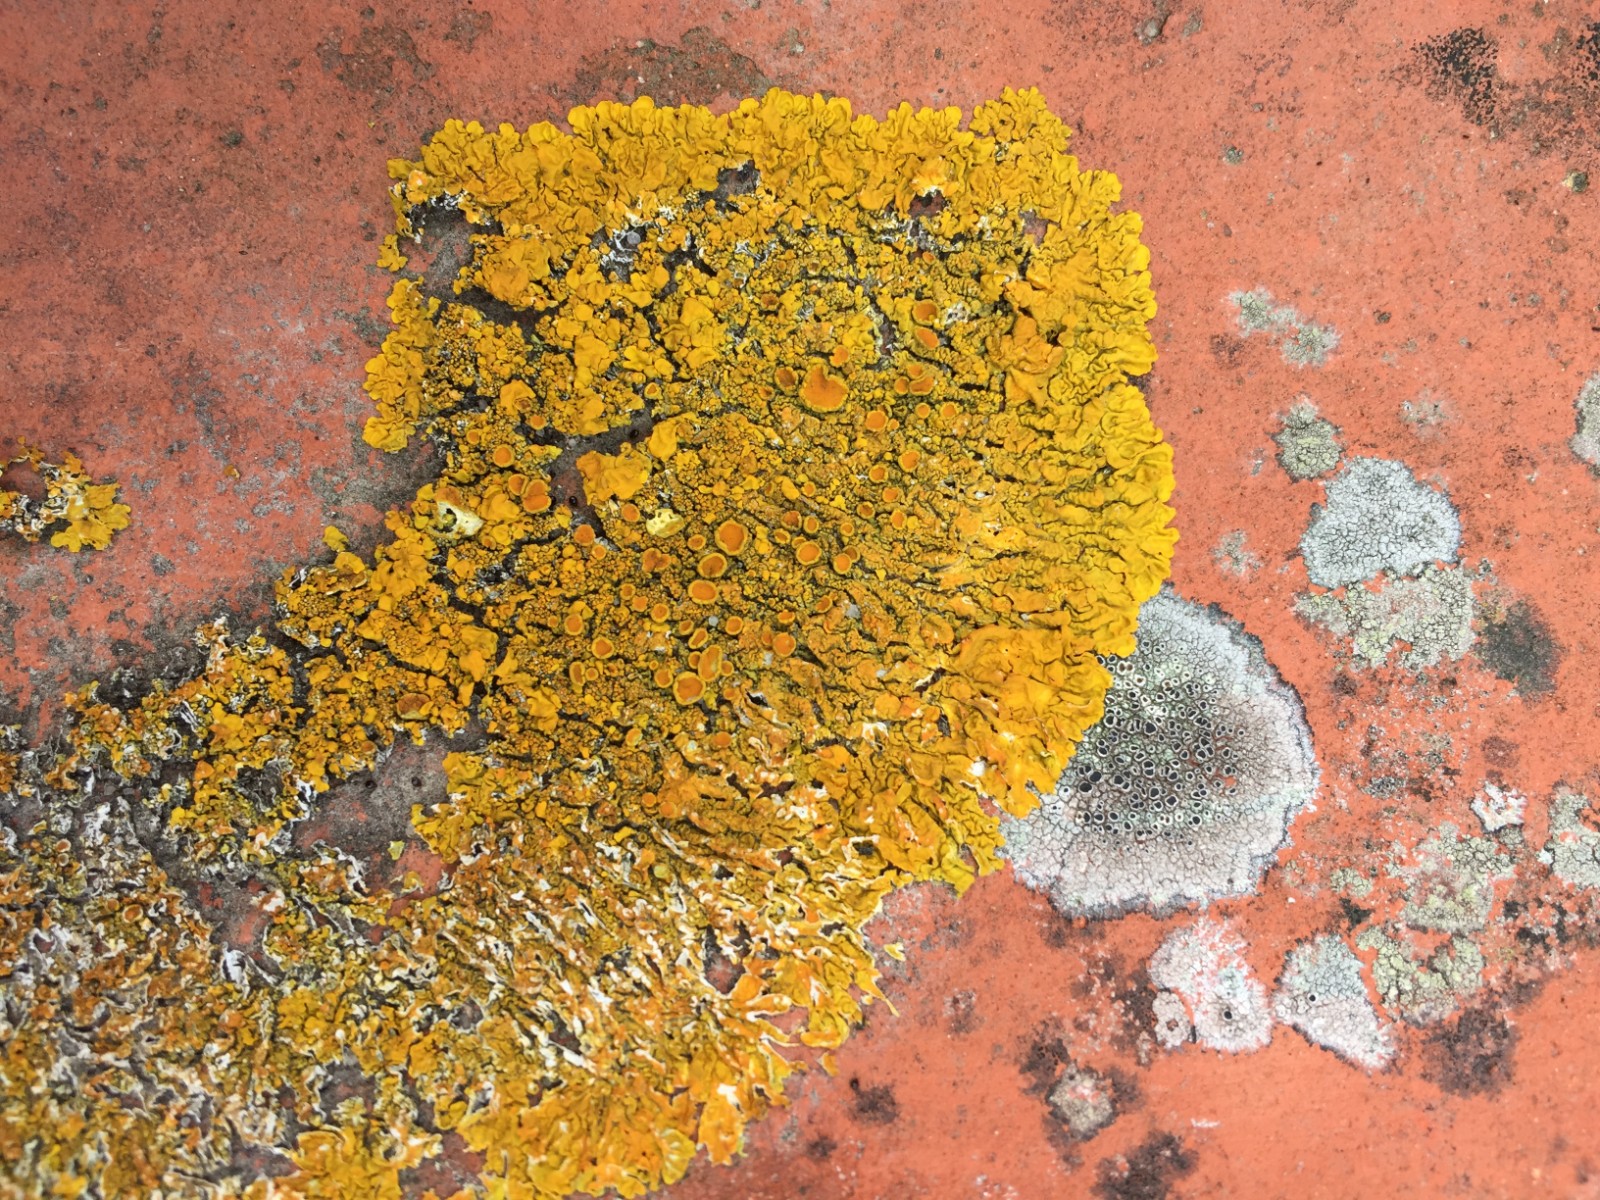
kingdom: Fungi
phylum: Ascomycota
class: Lecanoromycetes
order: Teloschistales
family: Teloschistaceae
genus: Xanthoria
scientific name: Xanthoria calcicola
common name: vortet væggelav
